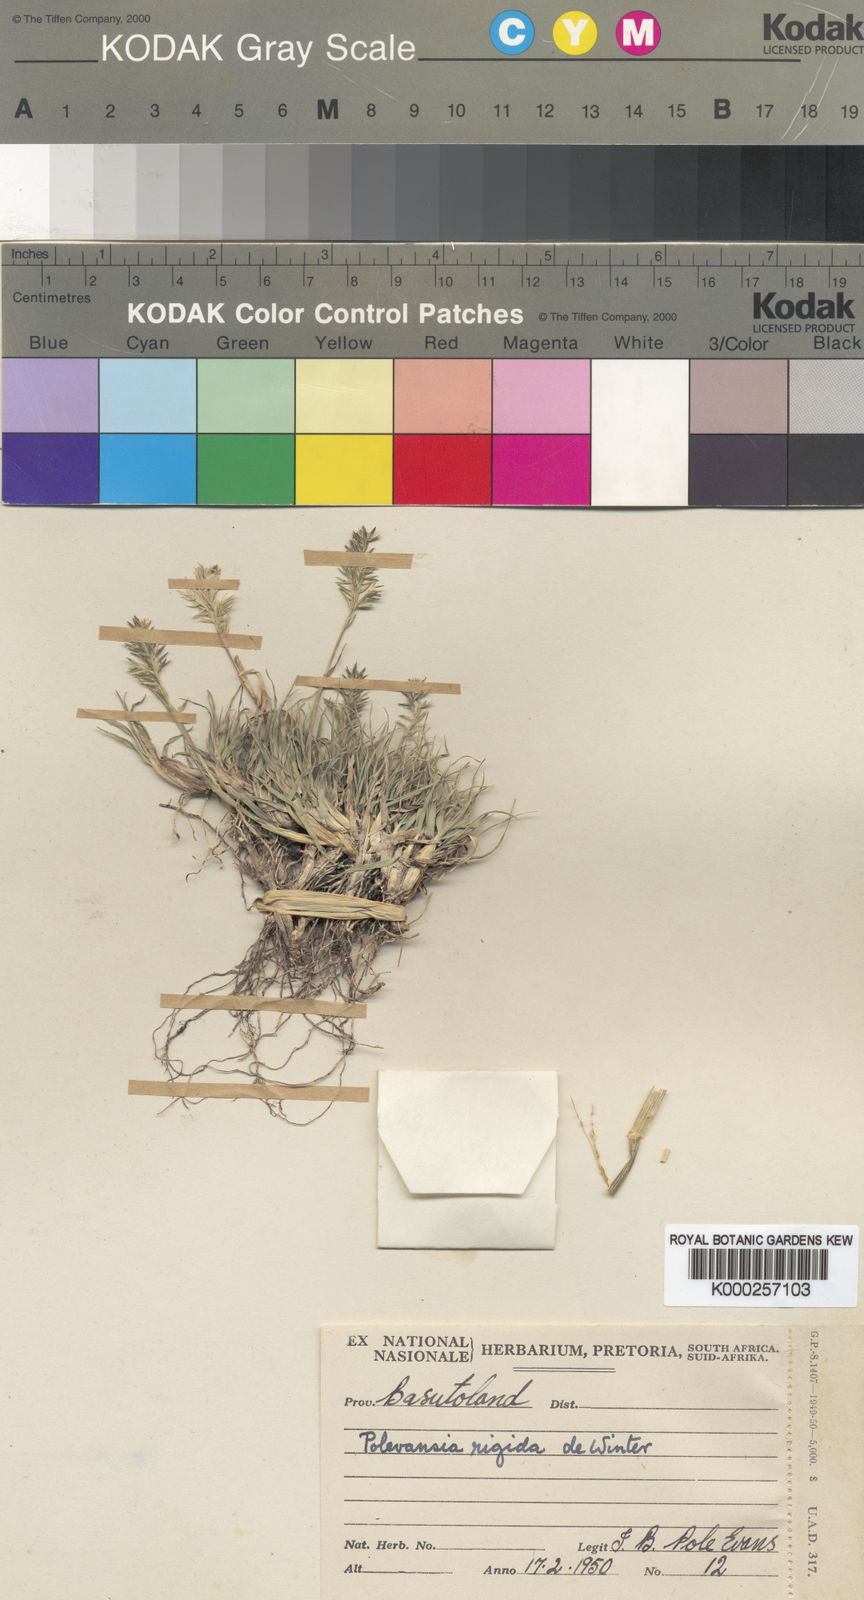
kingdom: Plantae
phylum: Tracheophyta
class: Liliopsida
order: Poales
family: Poaceae
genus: Polevansia
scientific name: Polevansia rigida
